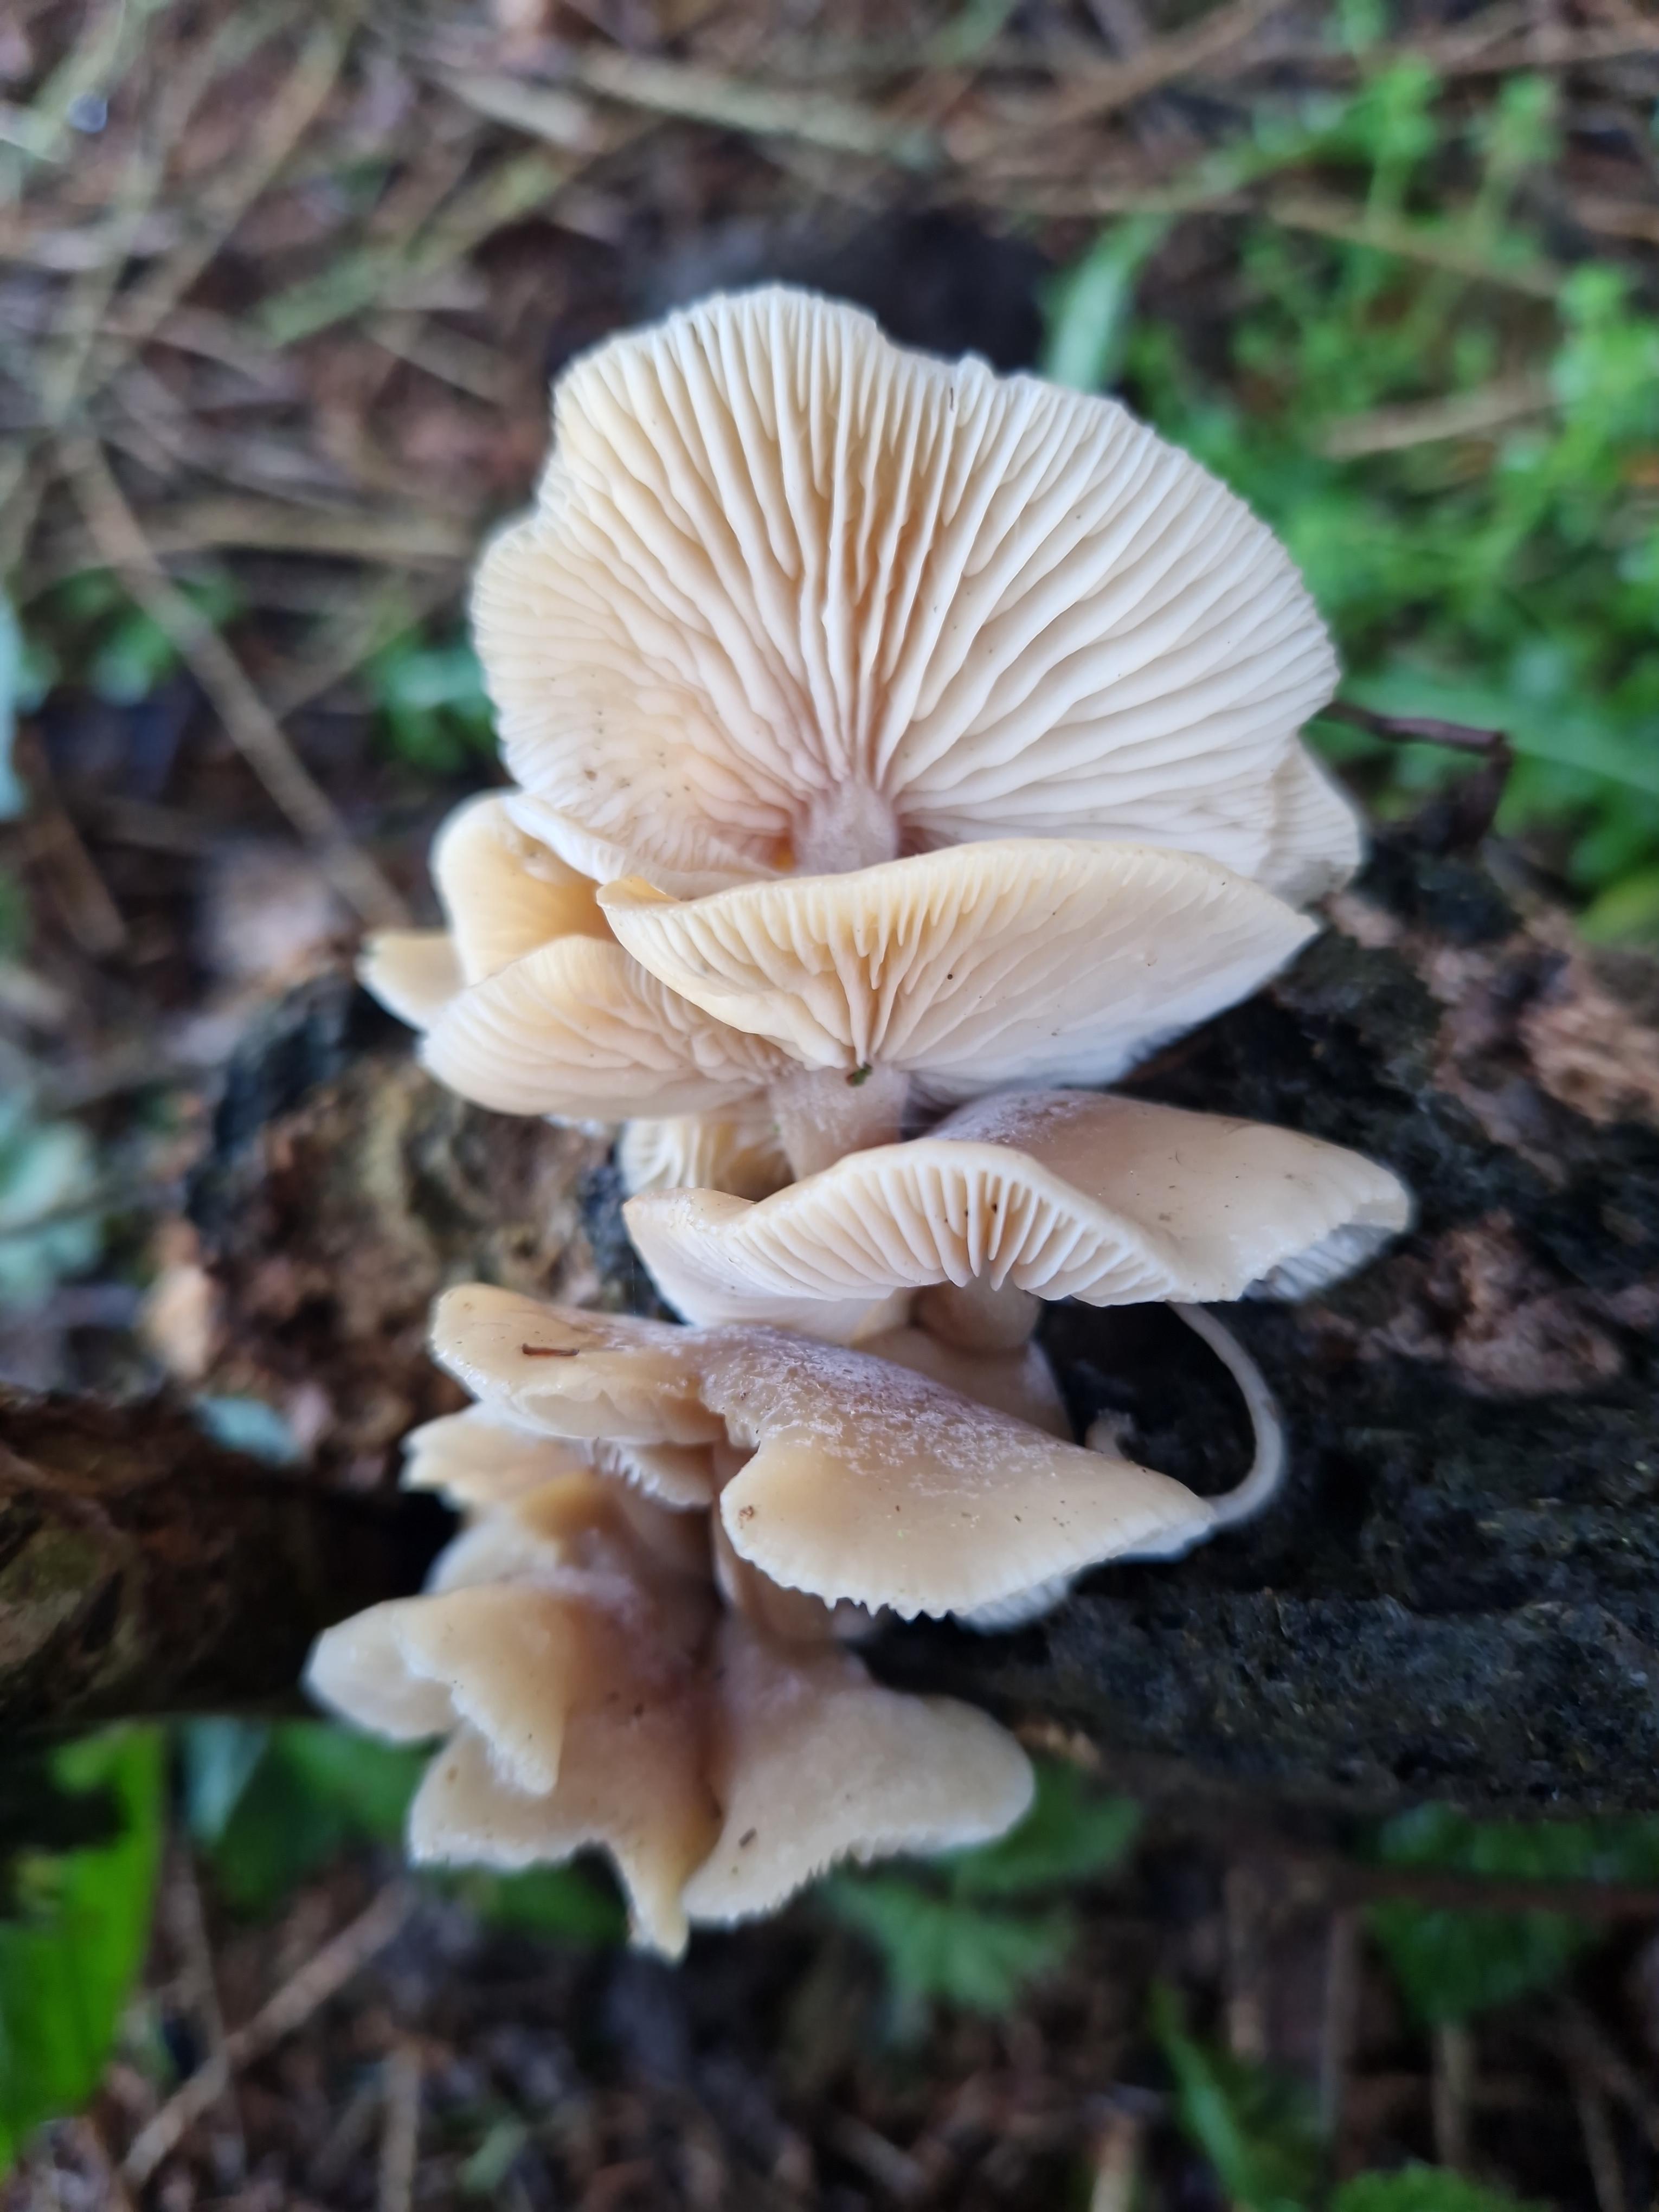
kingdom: Fungi
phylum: Basidiomycota
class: Agaricomycetes
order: Agaricales
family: Tricholomataceae
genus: Clitocybe
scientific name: Clitocybe amarescens
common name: gødnings-tragthat
